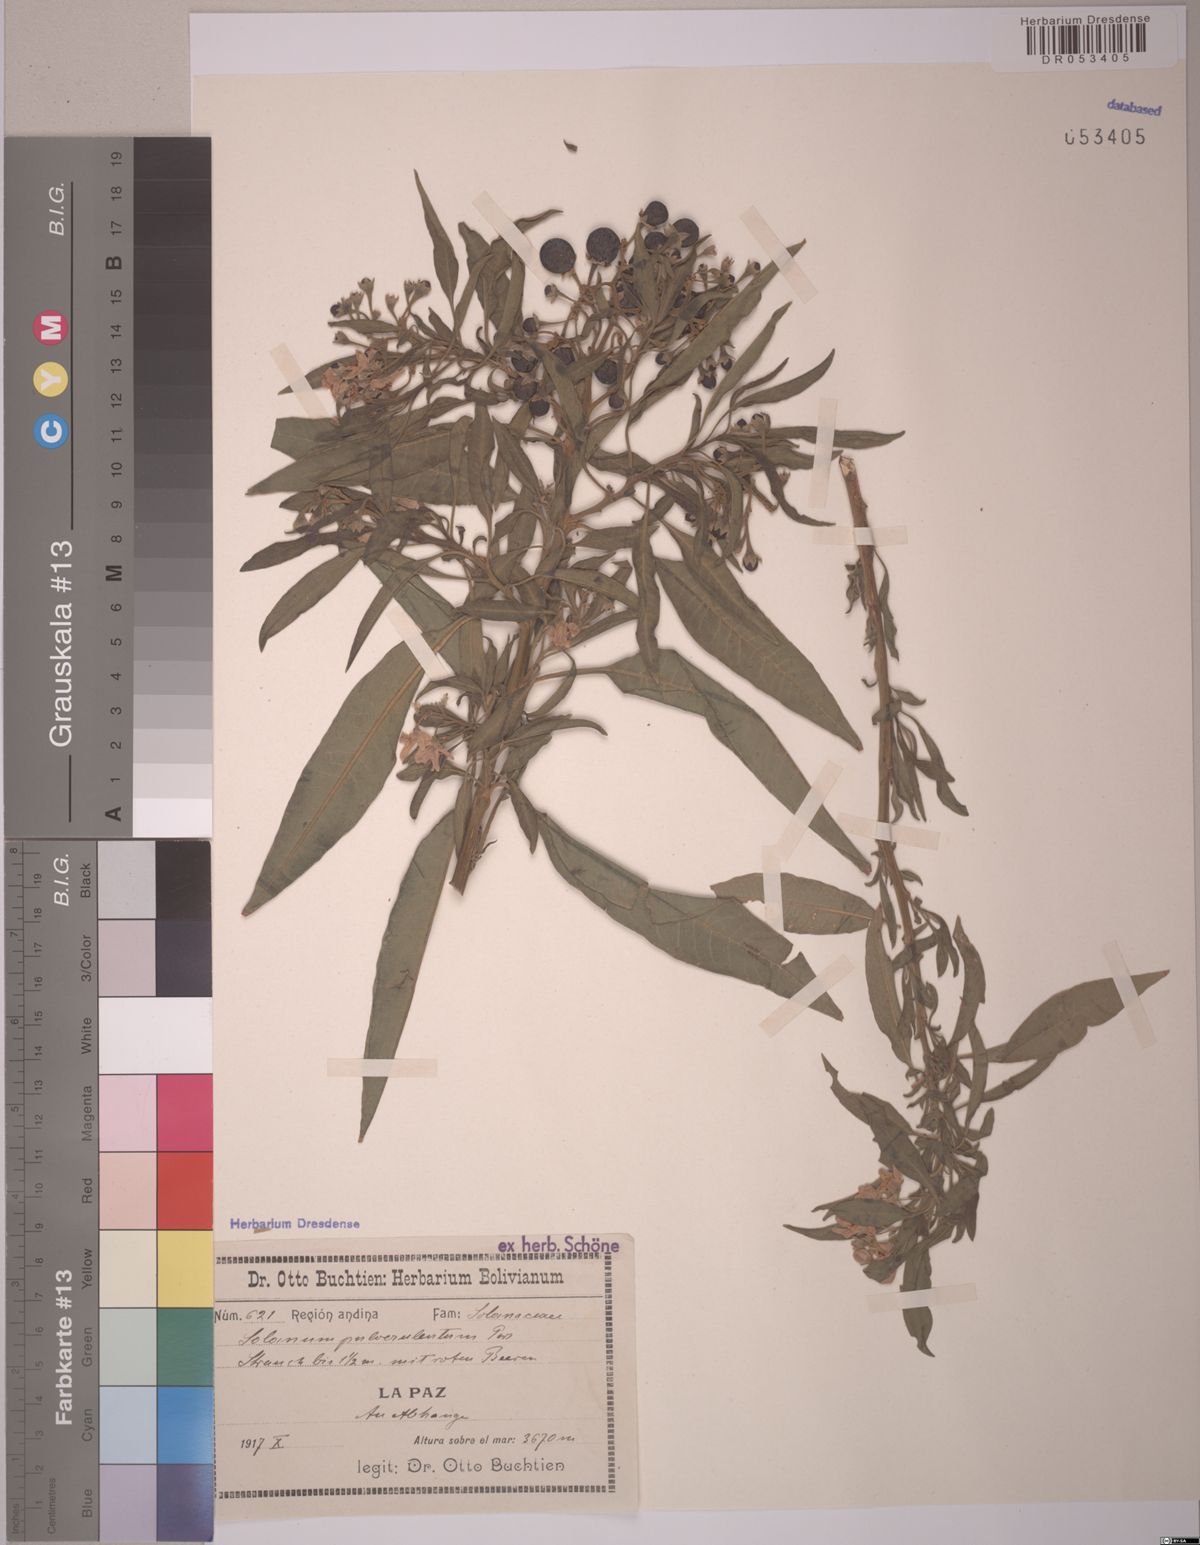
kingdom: Plantae
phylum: Tracheophyta
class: Magnoliopsida
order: Solanales
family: Solanaceae
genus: Solanum
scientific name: Solanum cutervanum
